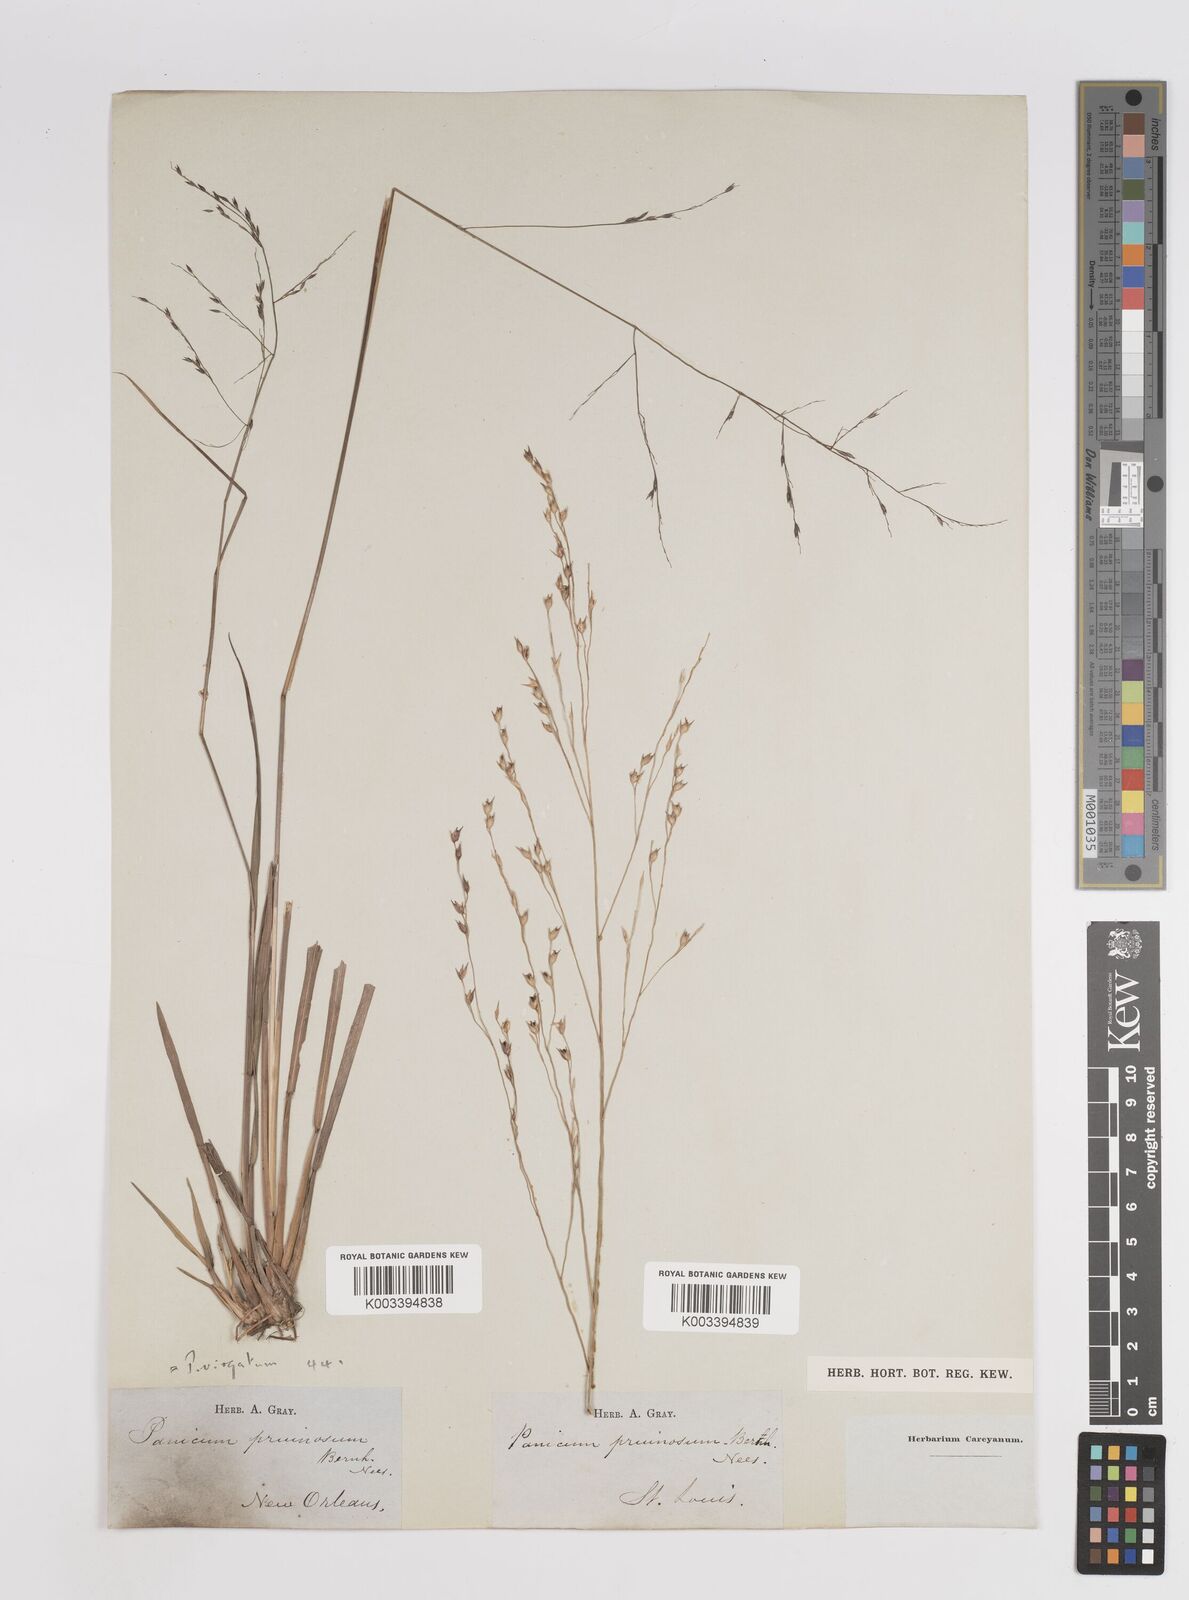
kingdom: Plantae
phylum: Tracheophyta
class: Liliopsida
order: Poales
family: Poaceae
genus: Panicum
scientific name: Panicum virgatum
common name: Switchgrass
